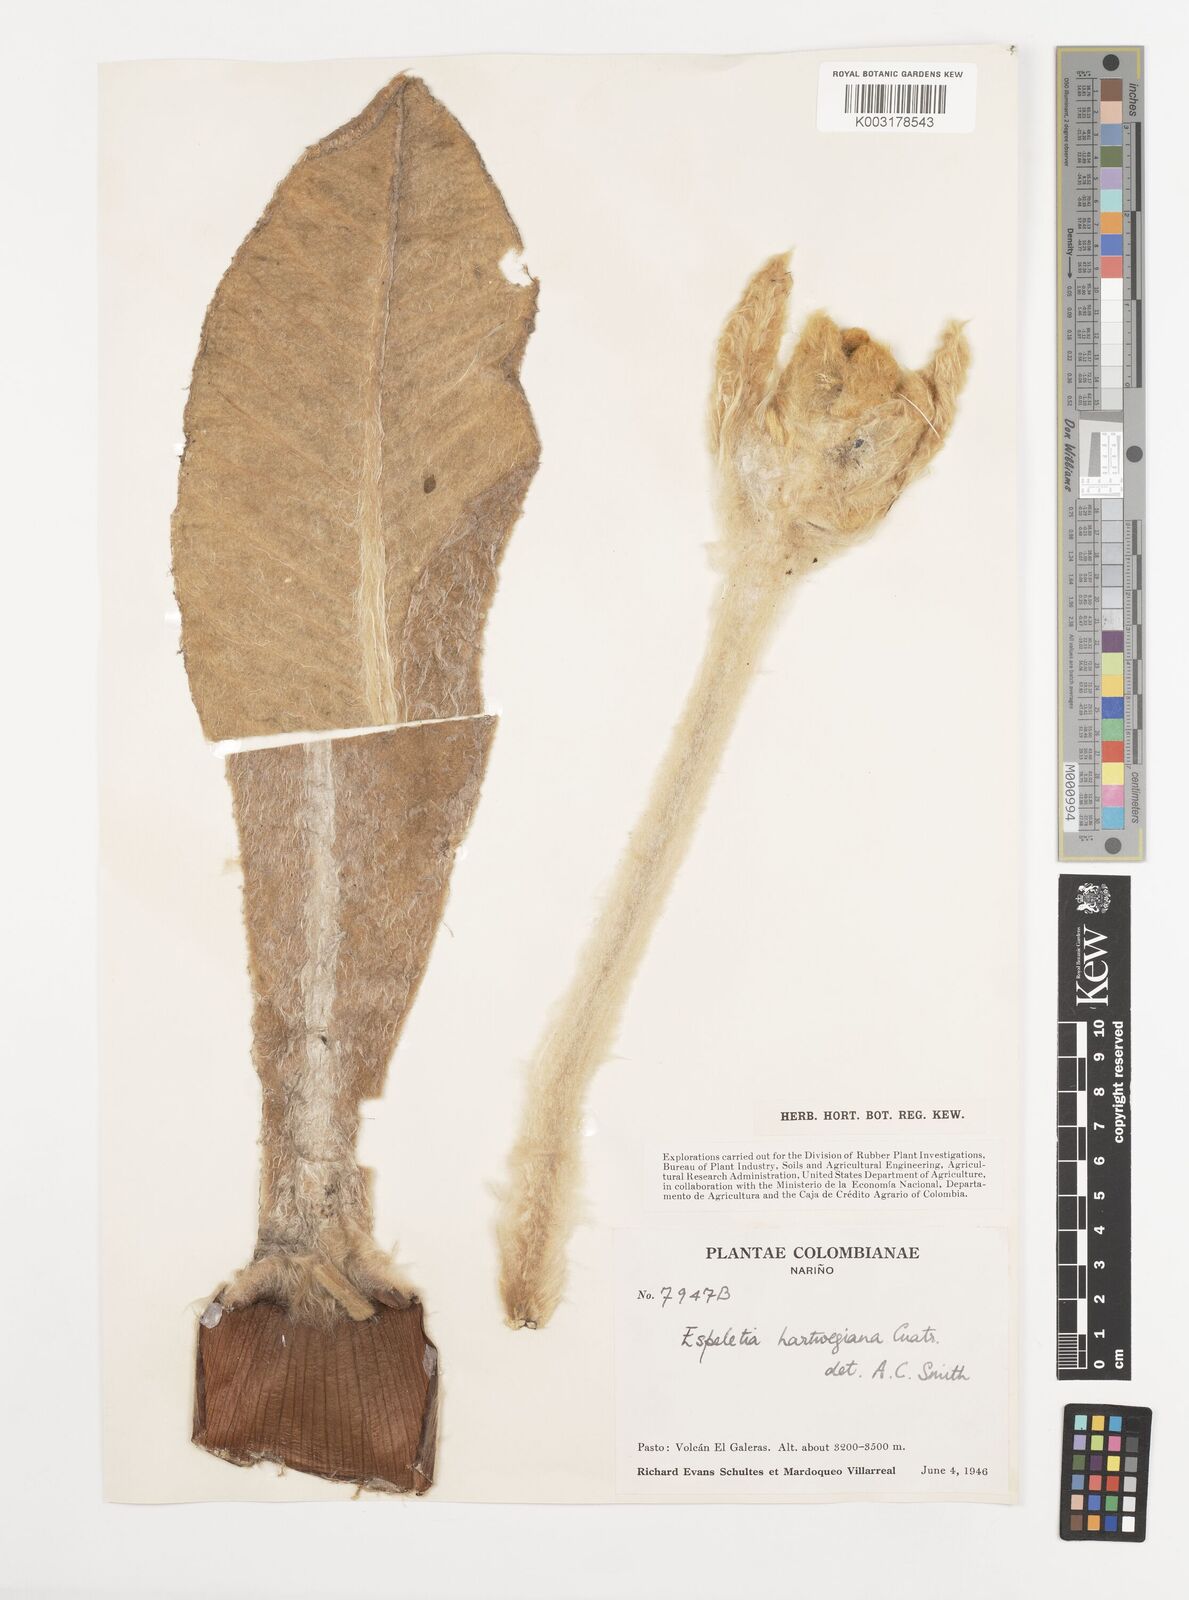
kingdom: Plantae
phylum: Tracheophyta
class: Magnoliopsida
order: Asterales
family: Asteraceae
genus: Espeletia
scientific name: Espeletia hartwegiana
